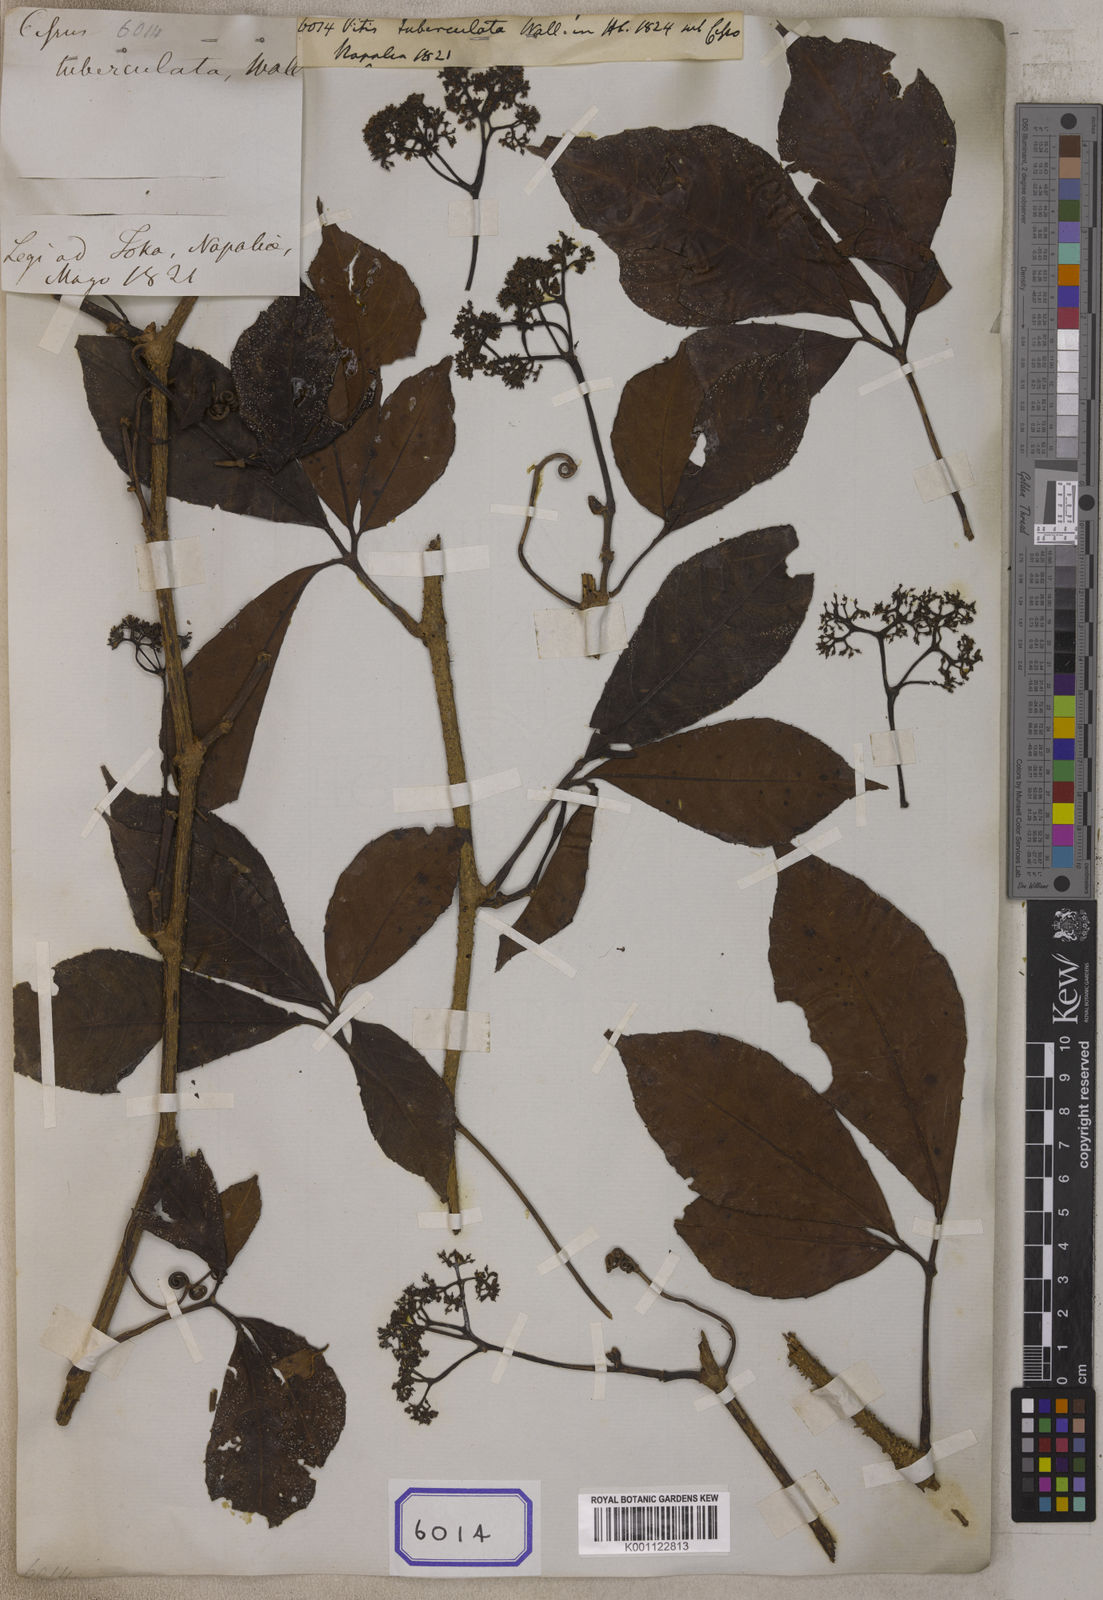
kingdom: Plantae
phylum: Tracheophyta
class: Magnoliopsida
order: Vitales
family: Vitaceae
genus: Tetrastigma
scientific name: Tetrastigma rumicispermum
